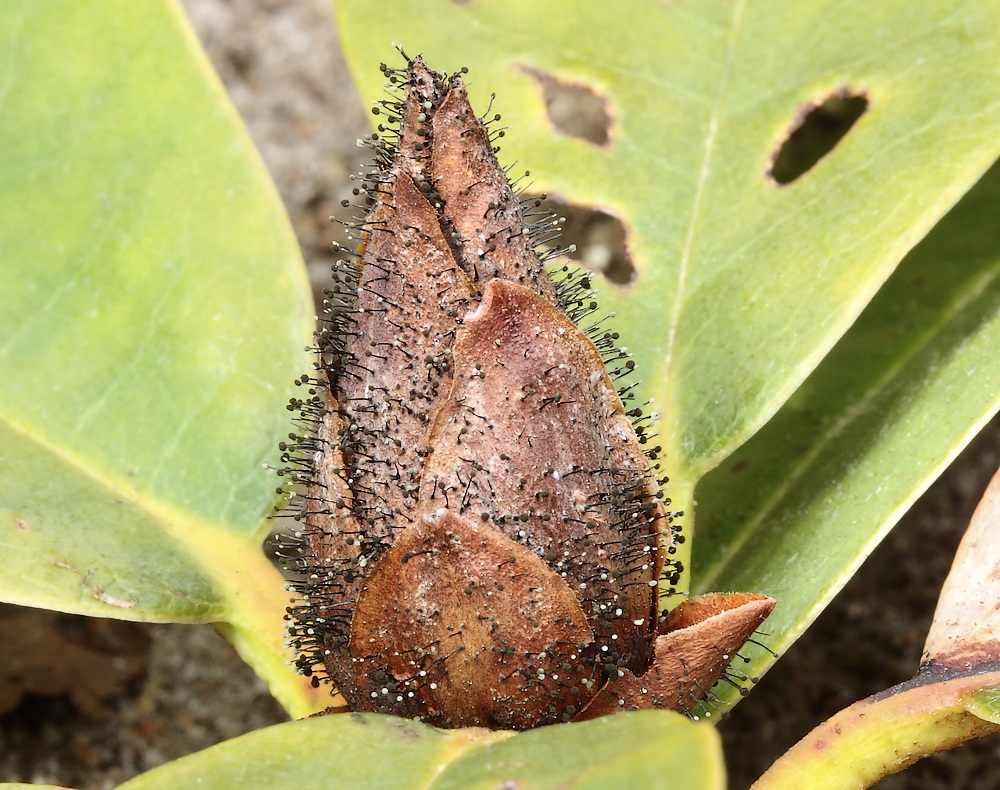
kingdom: Fungi
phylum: Ascomycota
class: Dothideomycetes
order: Pleosporales
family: Melanommataceae
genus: Seifertia
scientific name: Seifertia azaleae
